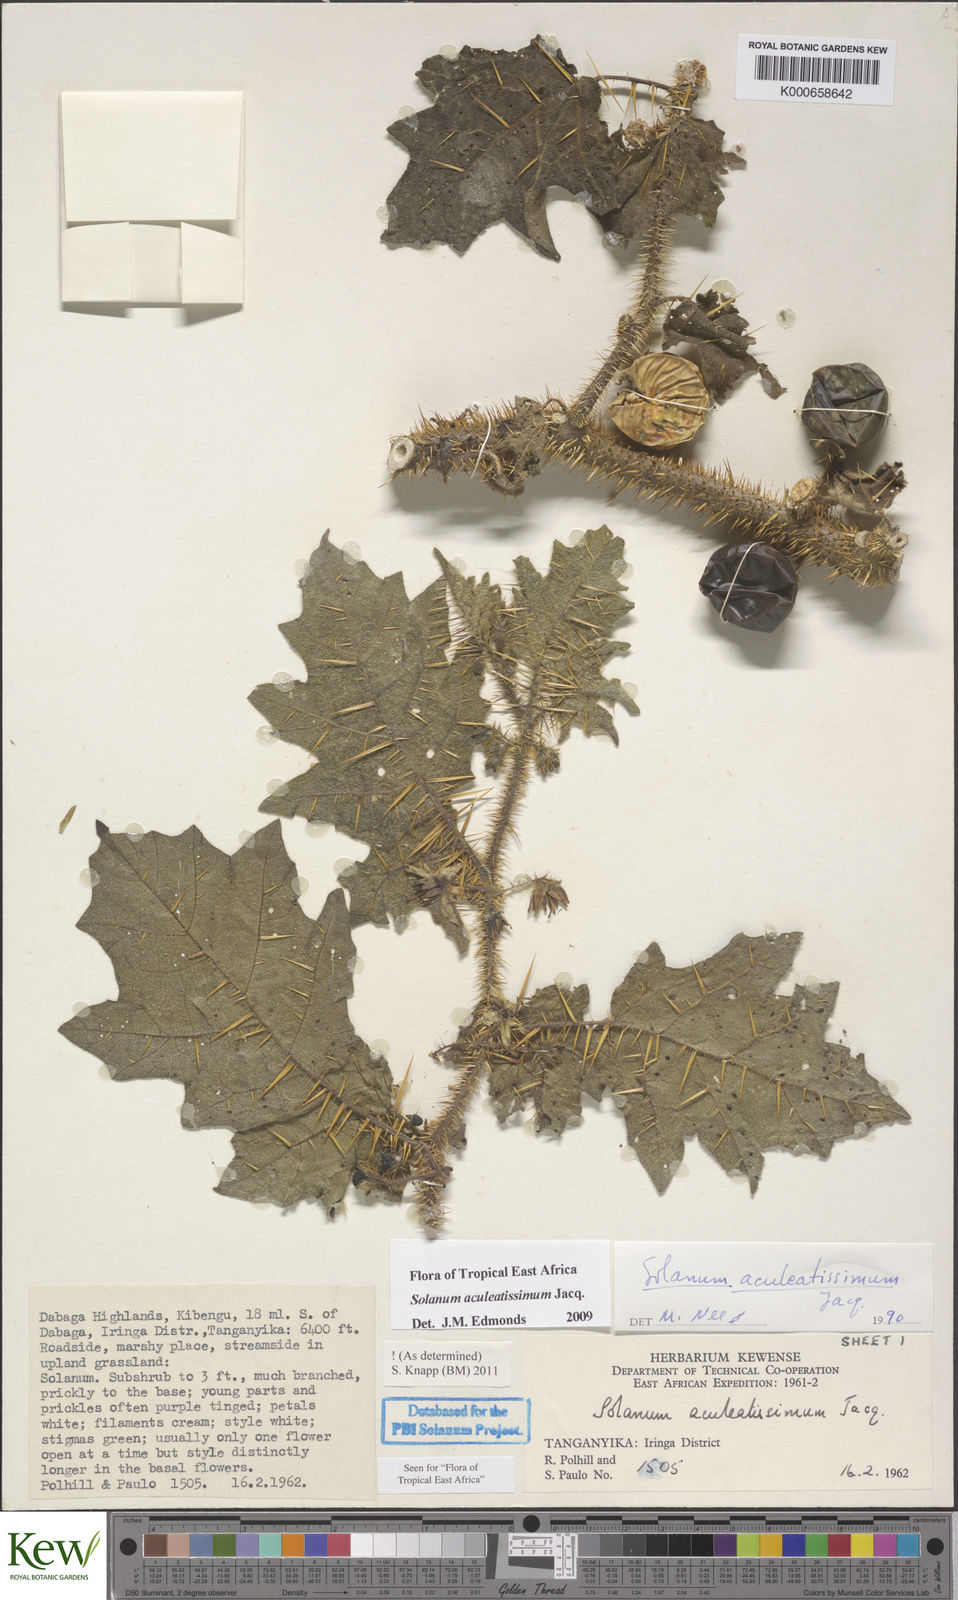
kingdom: Plantae
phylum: Tracheophyta
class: Magnoliopsida
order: Solanales
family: Solanaceae
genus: Solanum
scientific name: Solanum aculeatissimum
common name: Dutch eggplant
